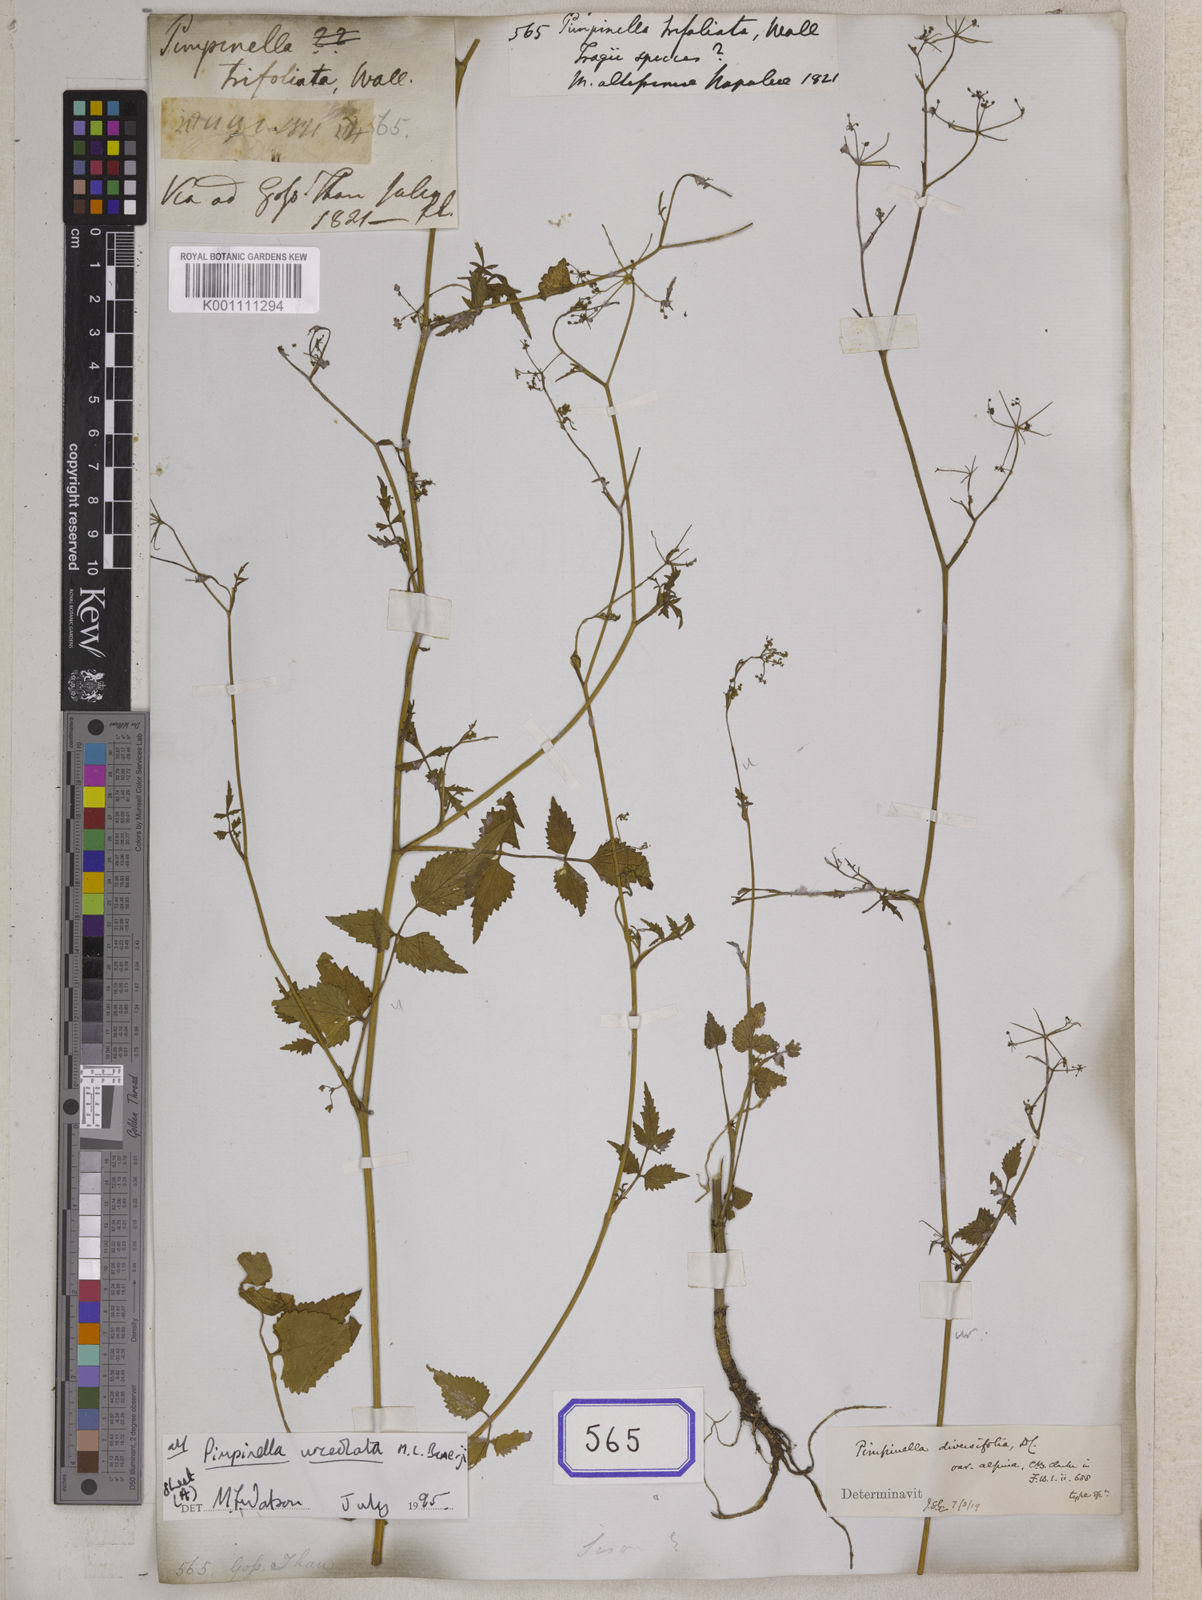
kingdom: Plantae
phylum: Tracheophyta
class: Magnoliopsida
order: Apiales
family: Apiaceae
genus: Pimpinella
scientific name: Pimpinella tongloensis
